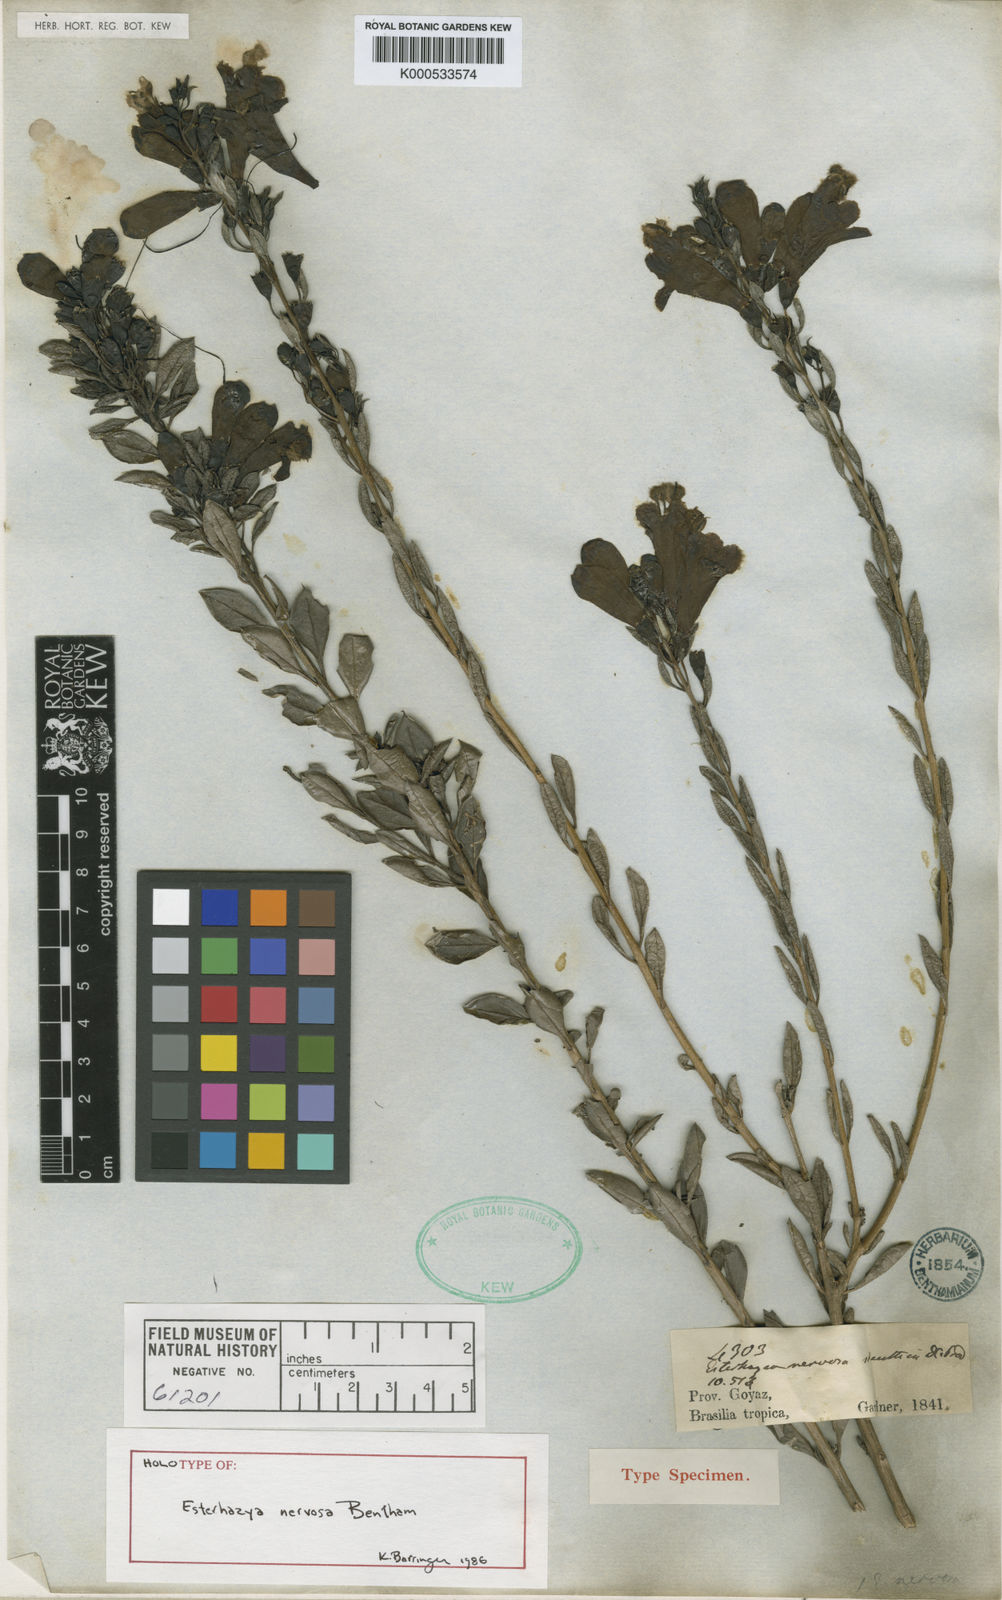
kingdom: Plantae
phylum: Tracheophyta
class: Magnoliopsida
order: Lamiales
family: Orobanchaceae
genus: Esterhazya
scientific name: Esterhazya splendida
